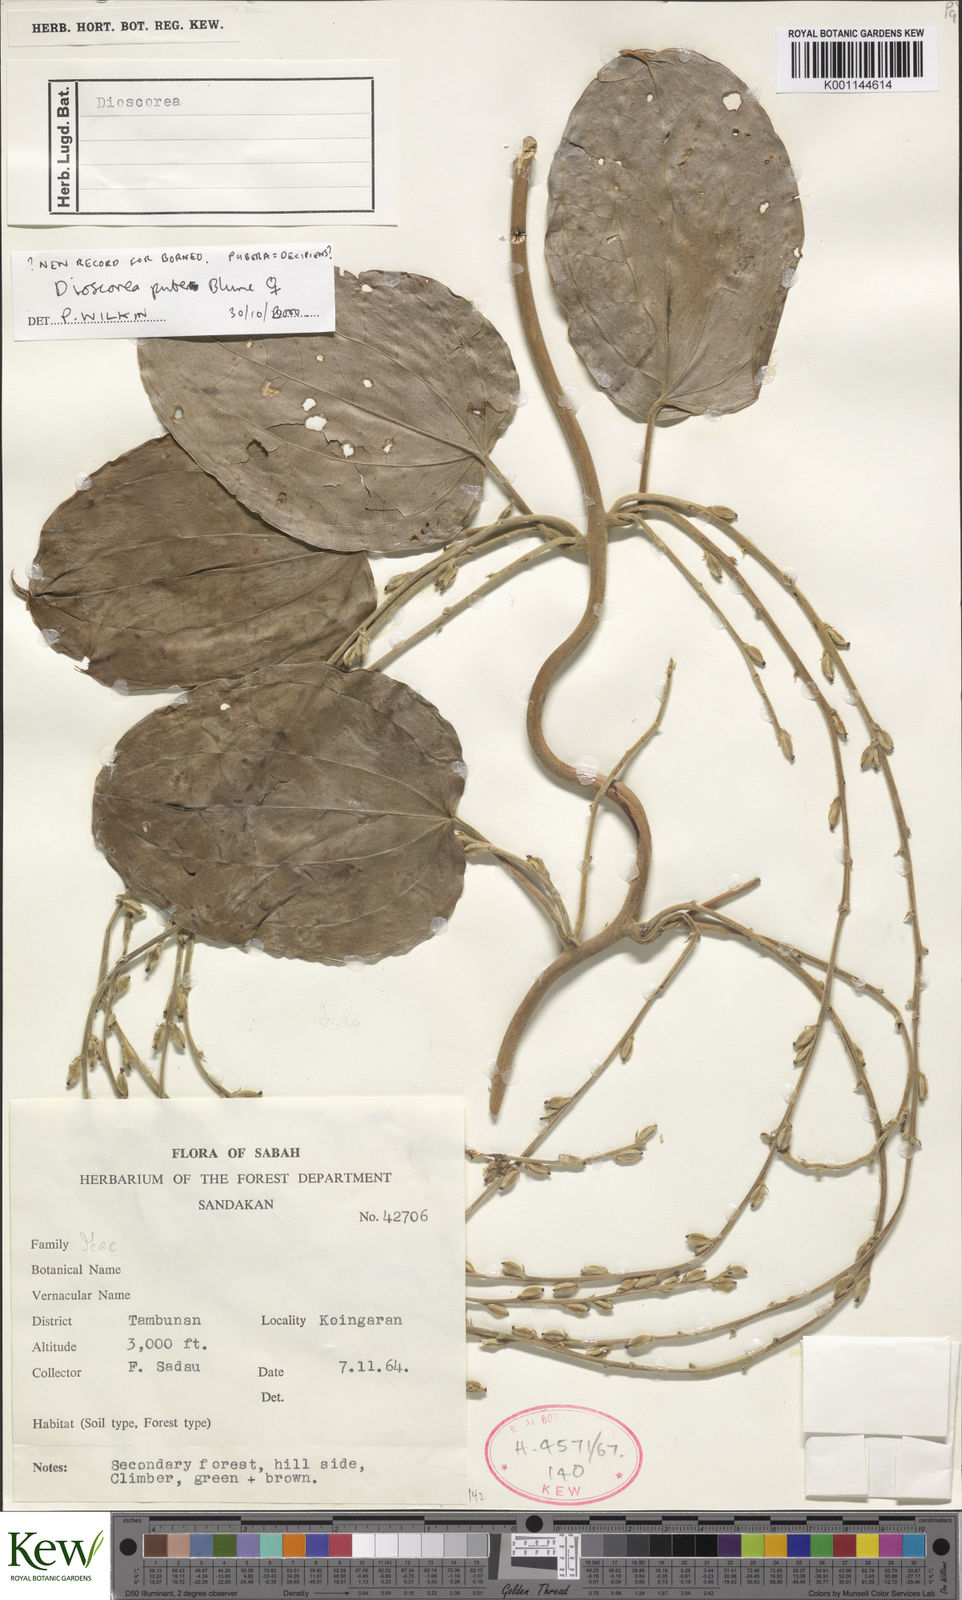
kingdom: Plantae
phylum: Tracheophyta
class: Liliopsida
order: Dioscoreales
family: Dioscoreaceae
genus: Dioscorea
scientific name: Dioscorea
